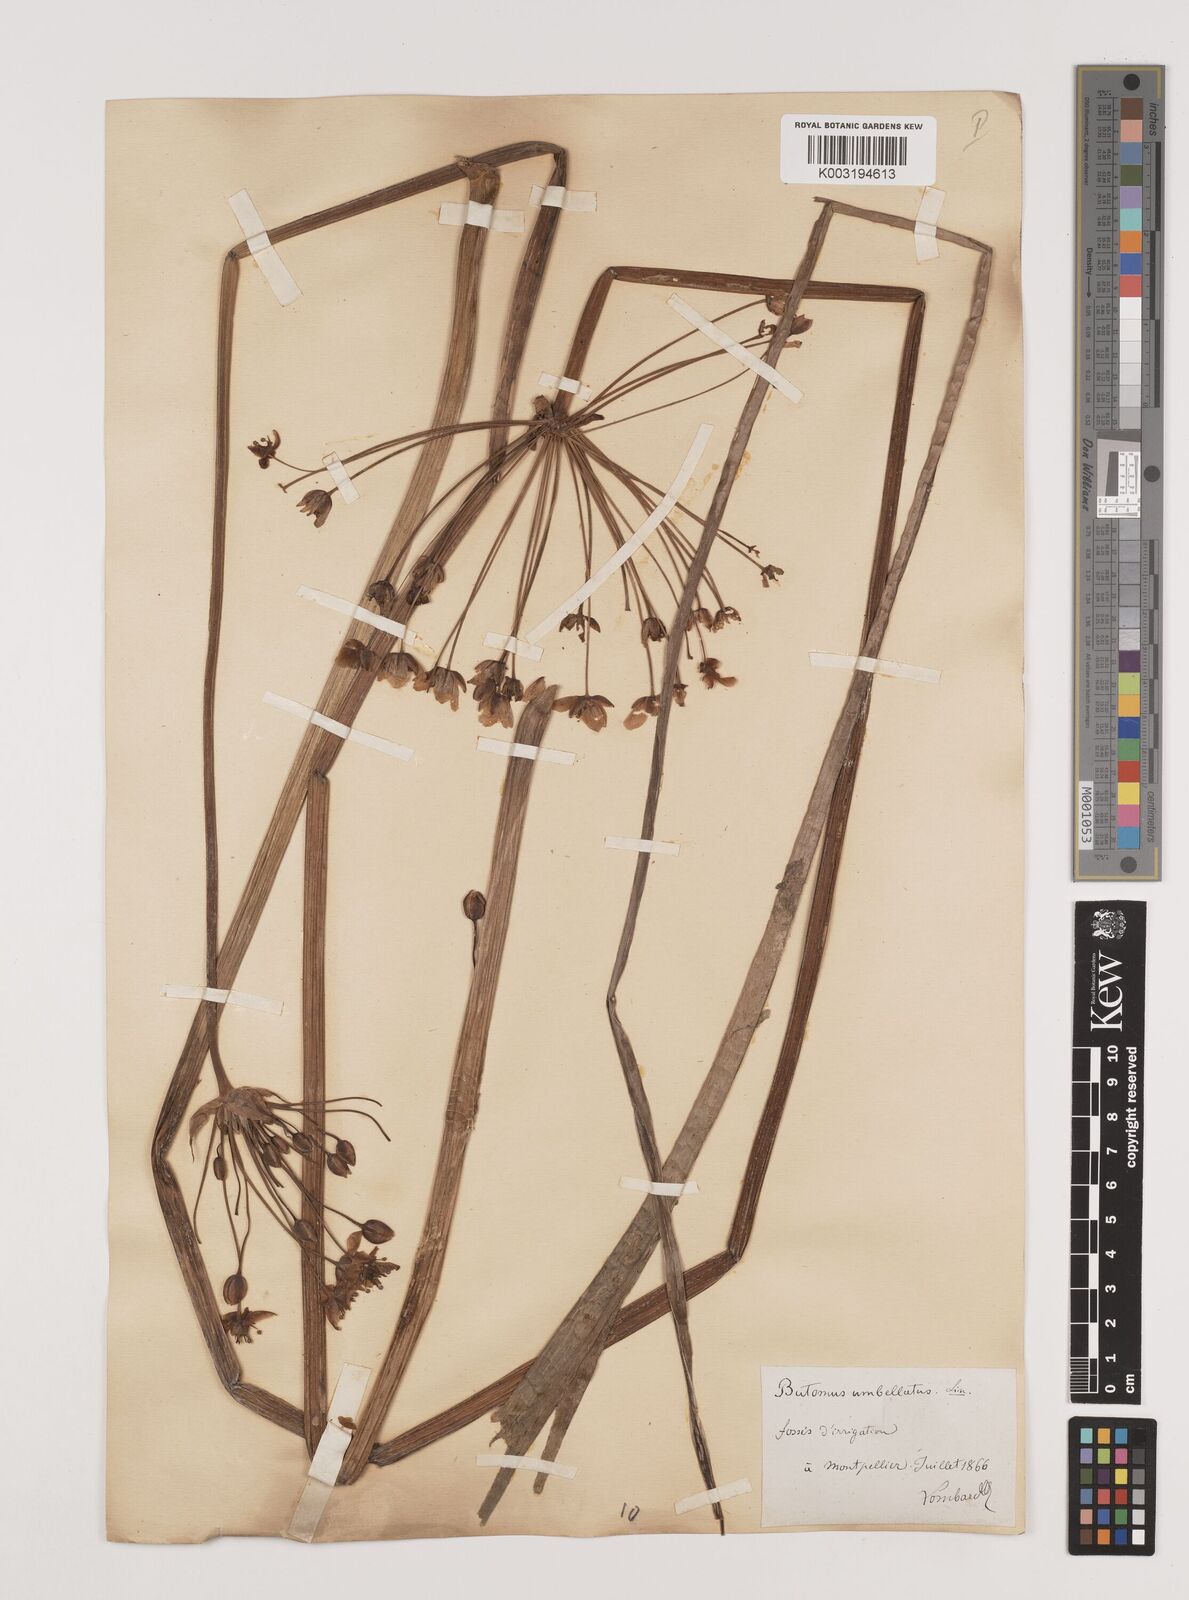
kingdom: Plantae
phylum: Tracheophyta
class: Liliopsida
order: Alismatales
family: Butomaceae
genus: Butomus
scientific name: Butomus umbellatus
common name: Flowering-rush
